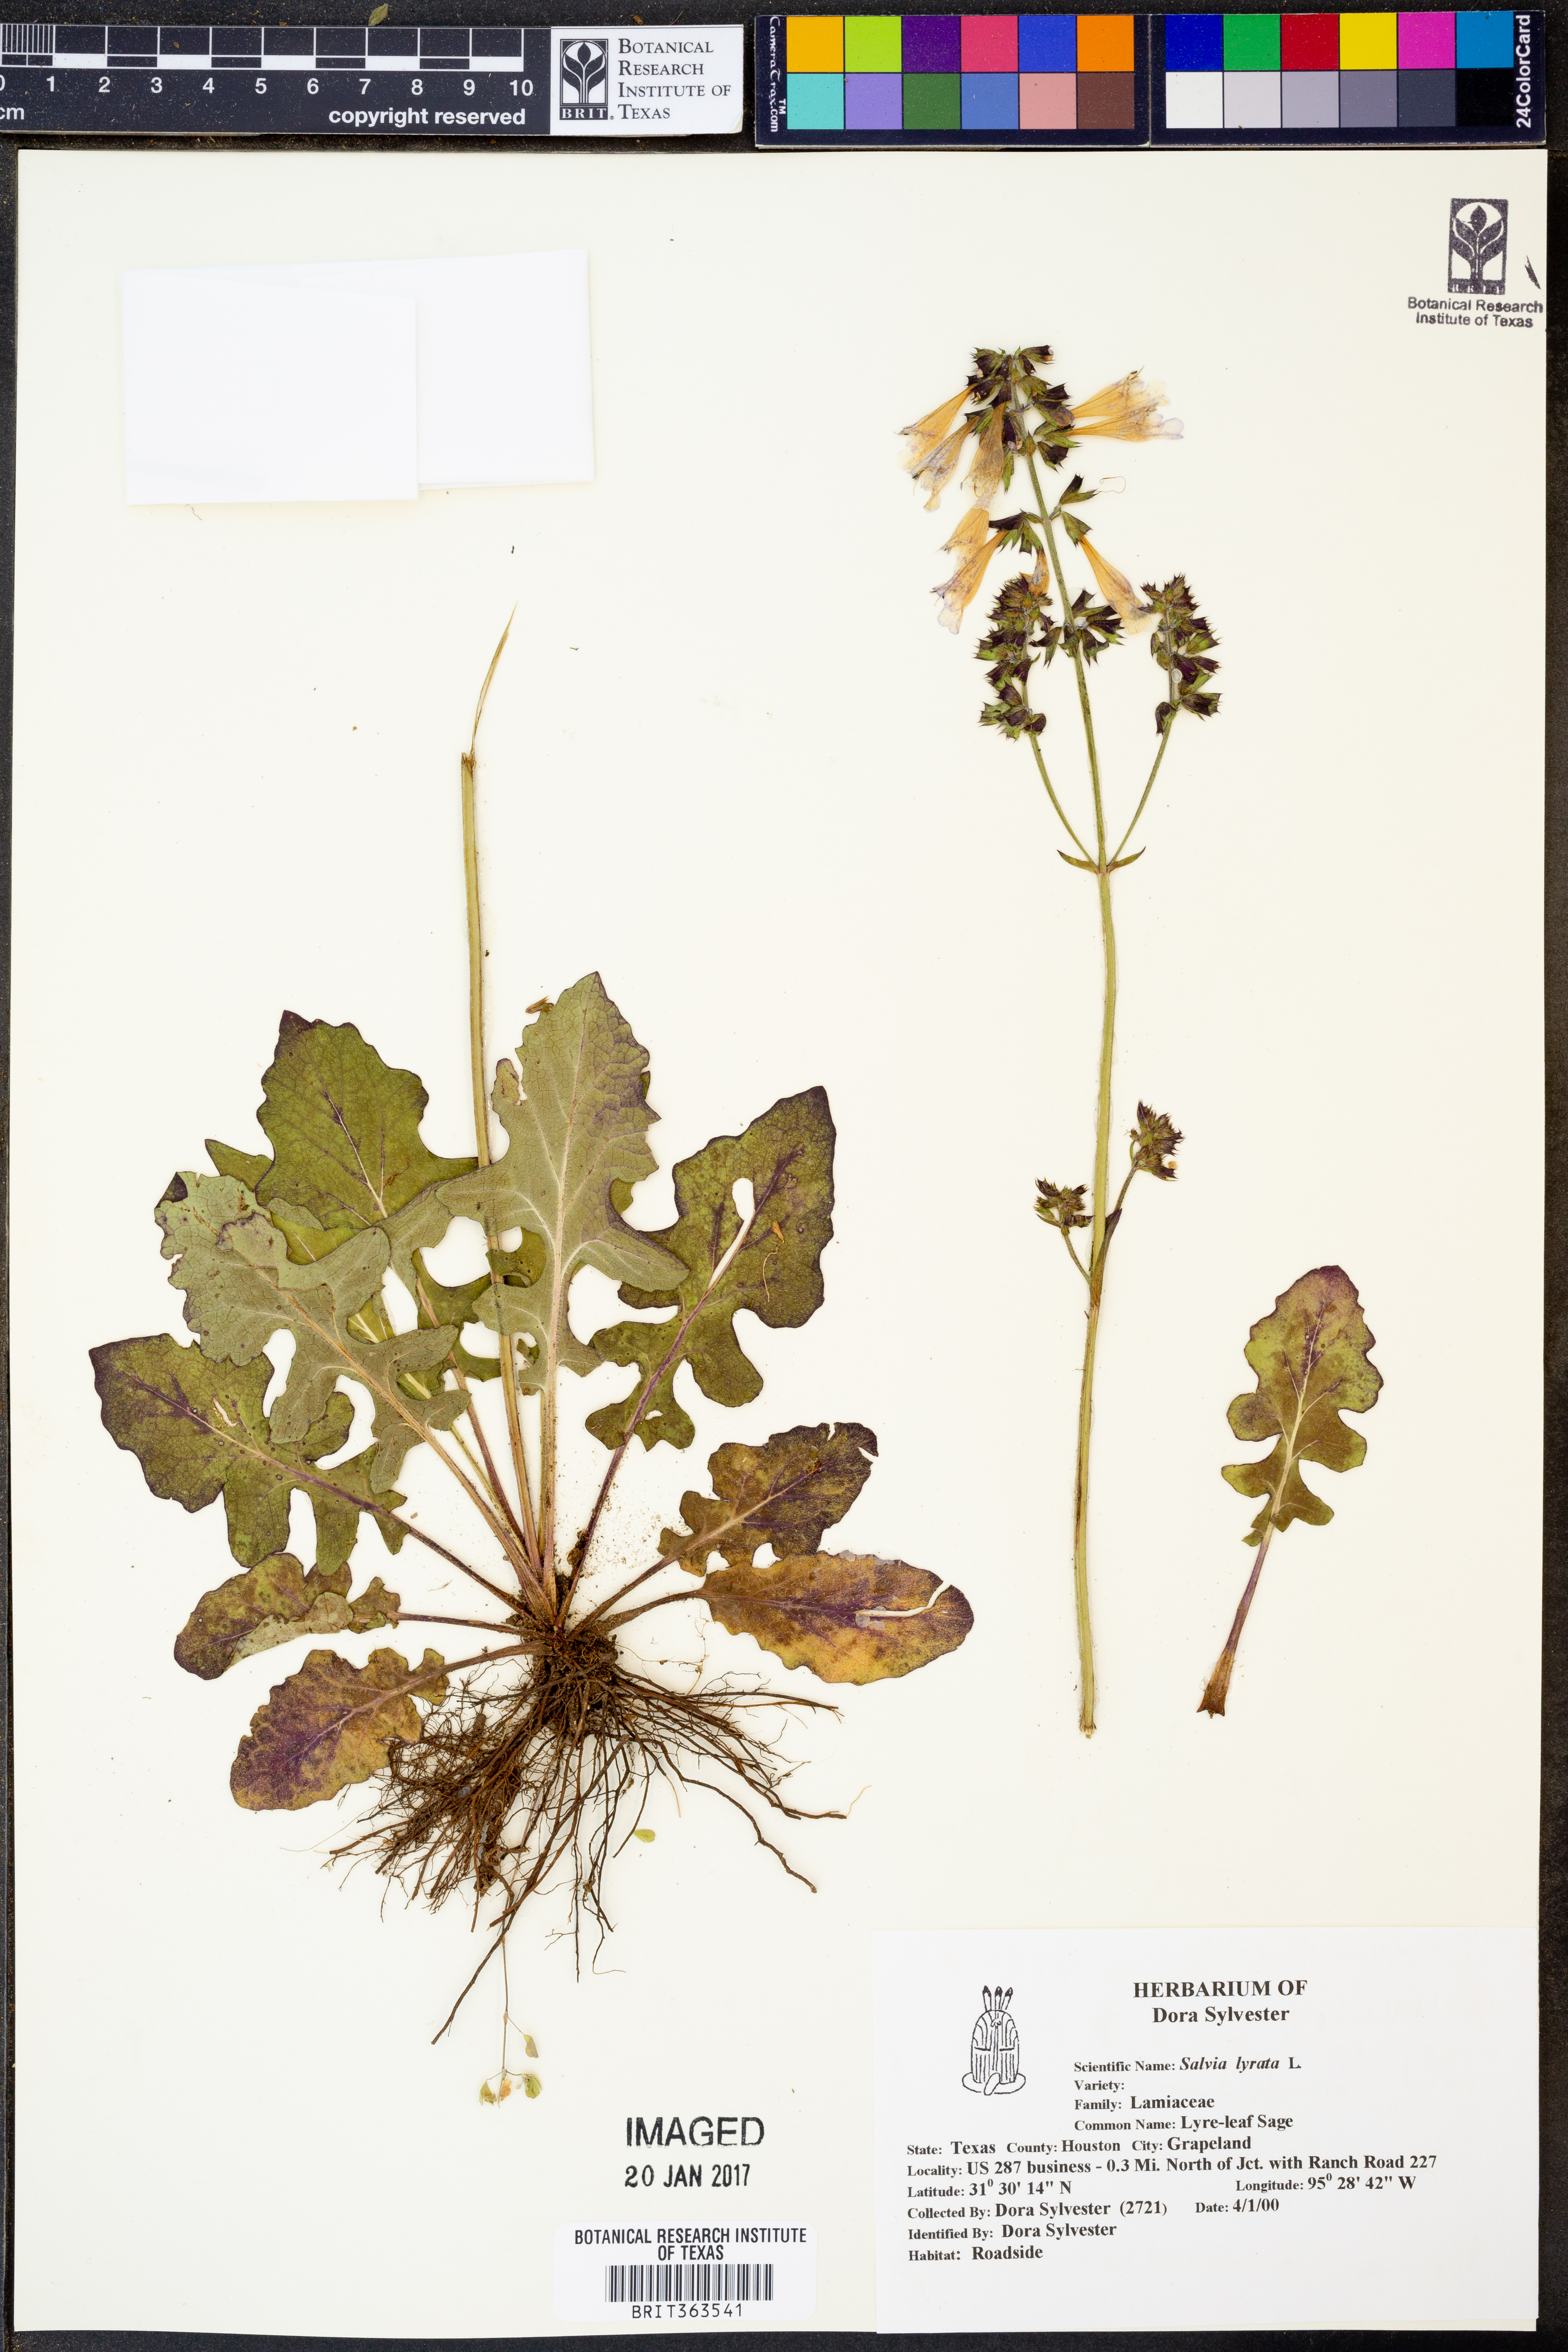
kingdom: Plantae
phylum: Tracheophyta
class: Magnoliopsida
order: Lamiales
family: Lamiaceae
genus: Salvia
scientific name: Salvia lyrata
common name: Cancerweed
